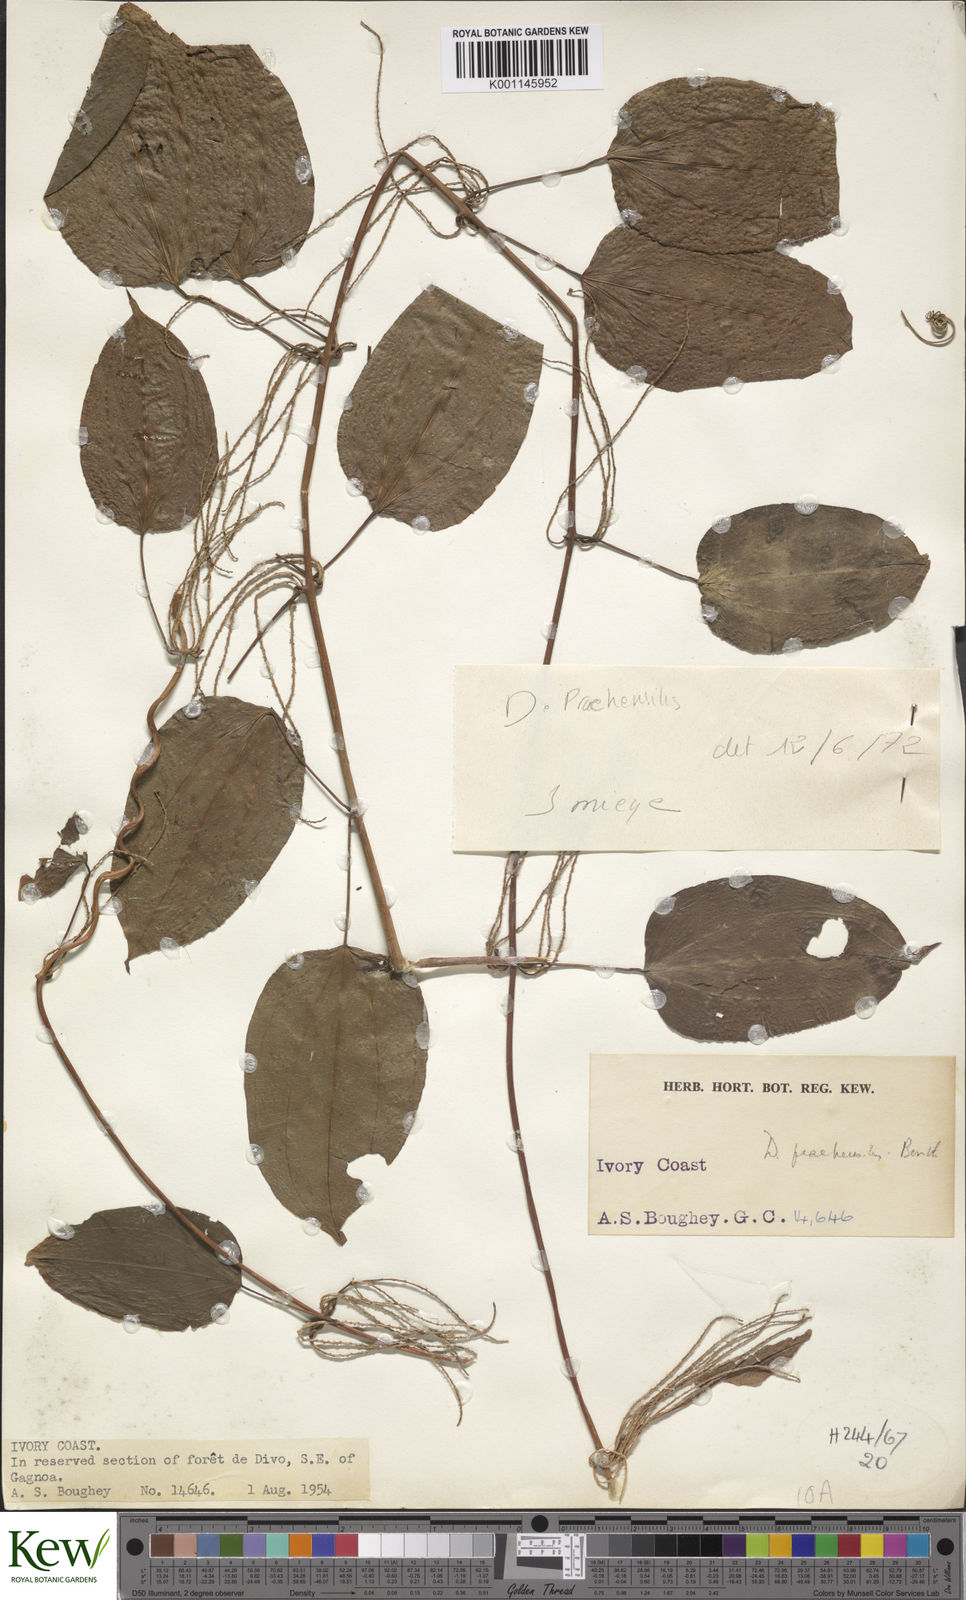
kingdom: Plantae
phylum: Tracheophyta
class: Liliopsida
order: Dioscoreales
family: Dioscoreaceae
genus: Dioscorea
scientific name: Dioscorea praehensilis
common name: Bush yam
